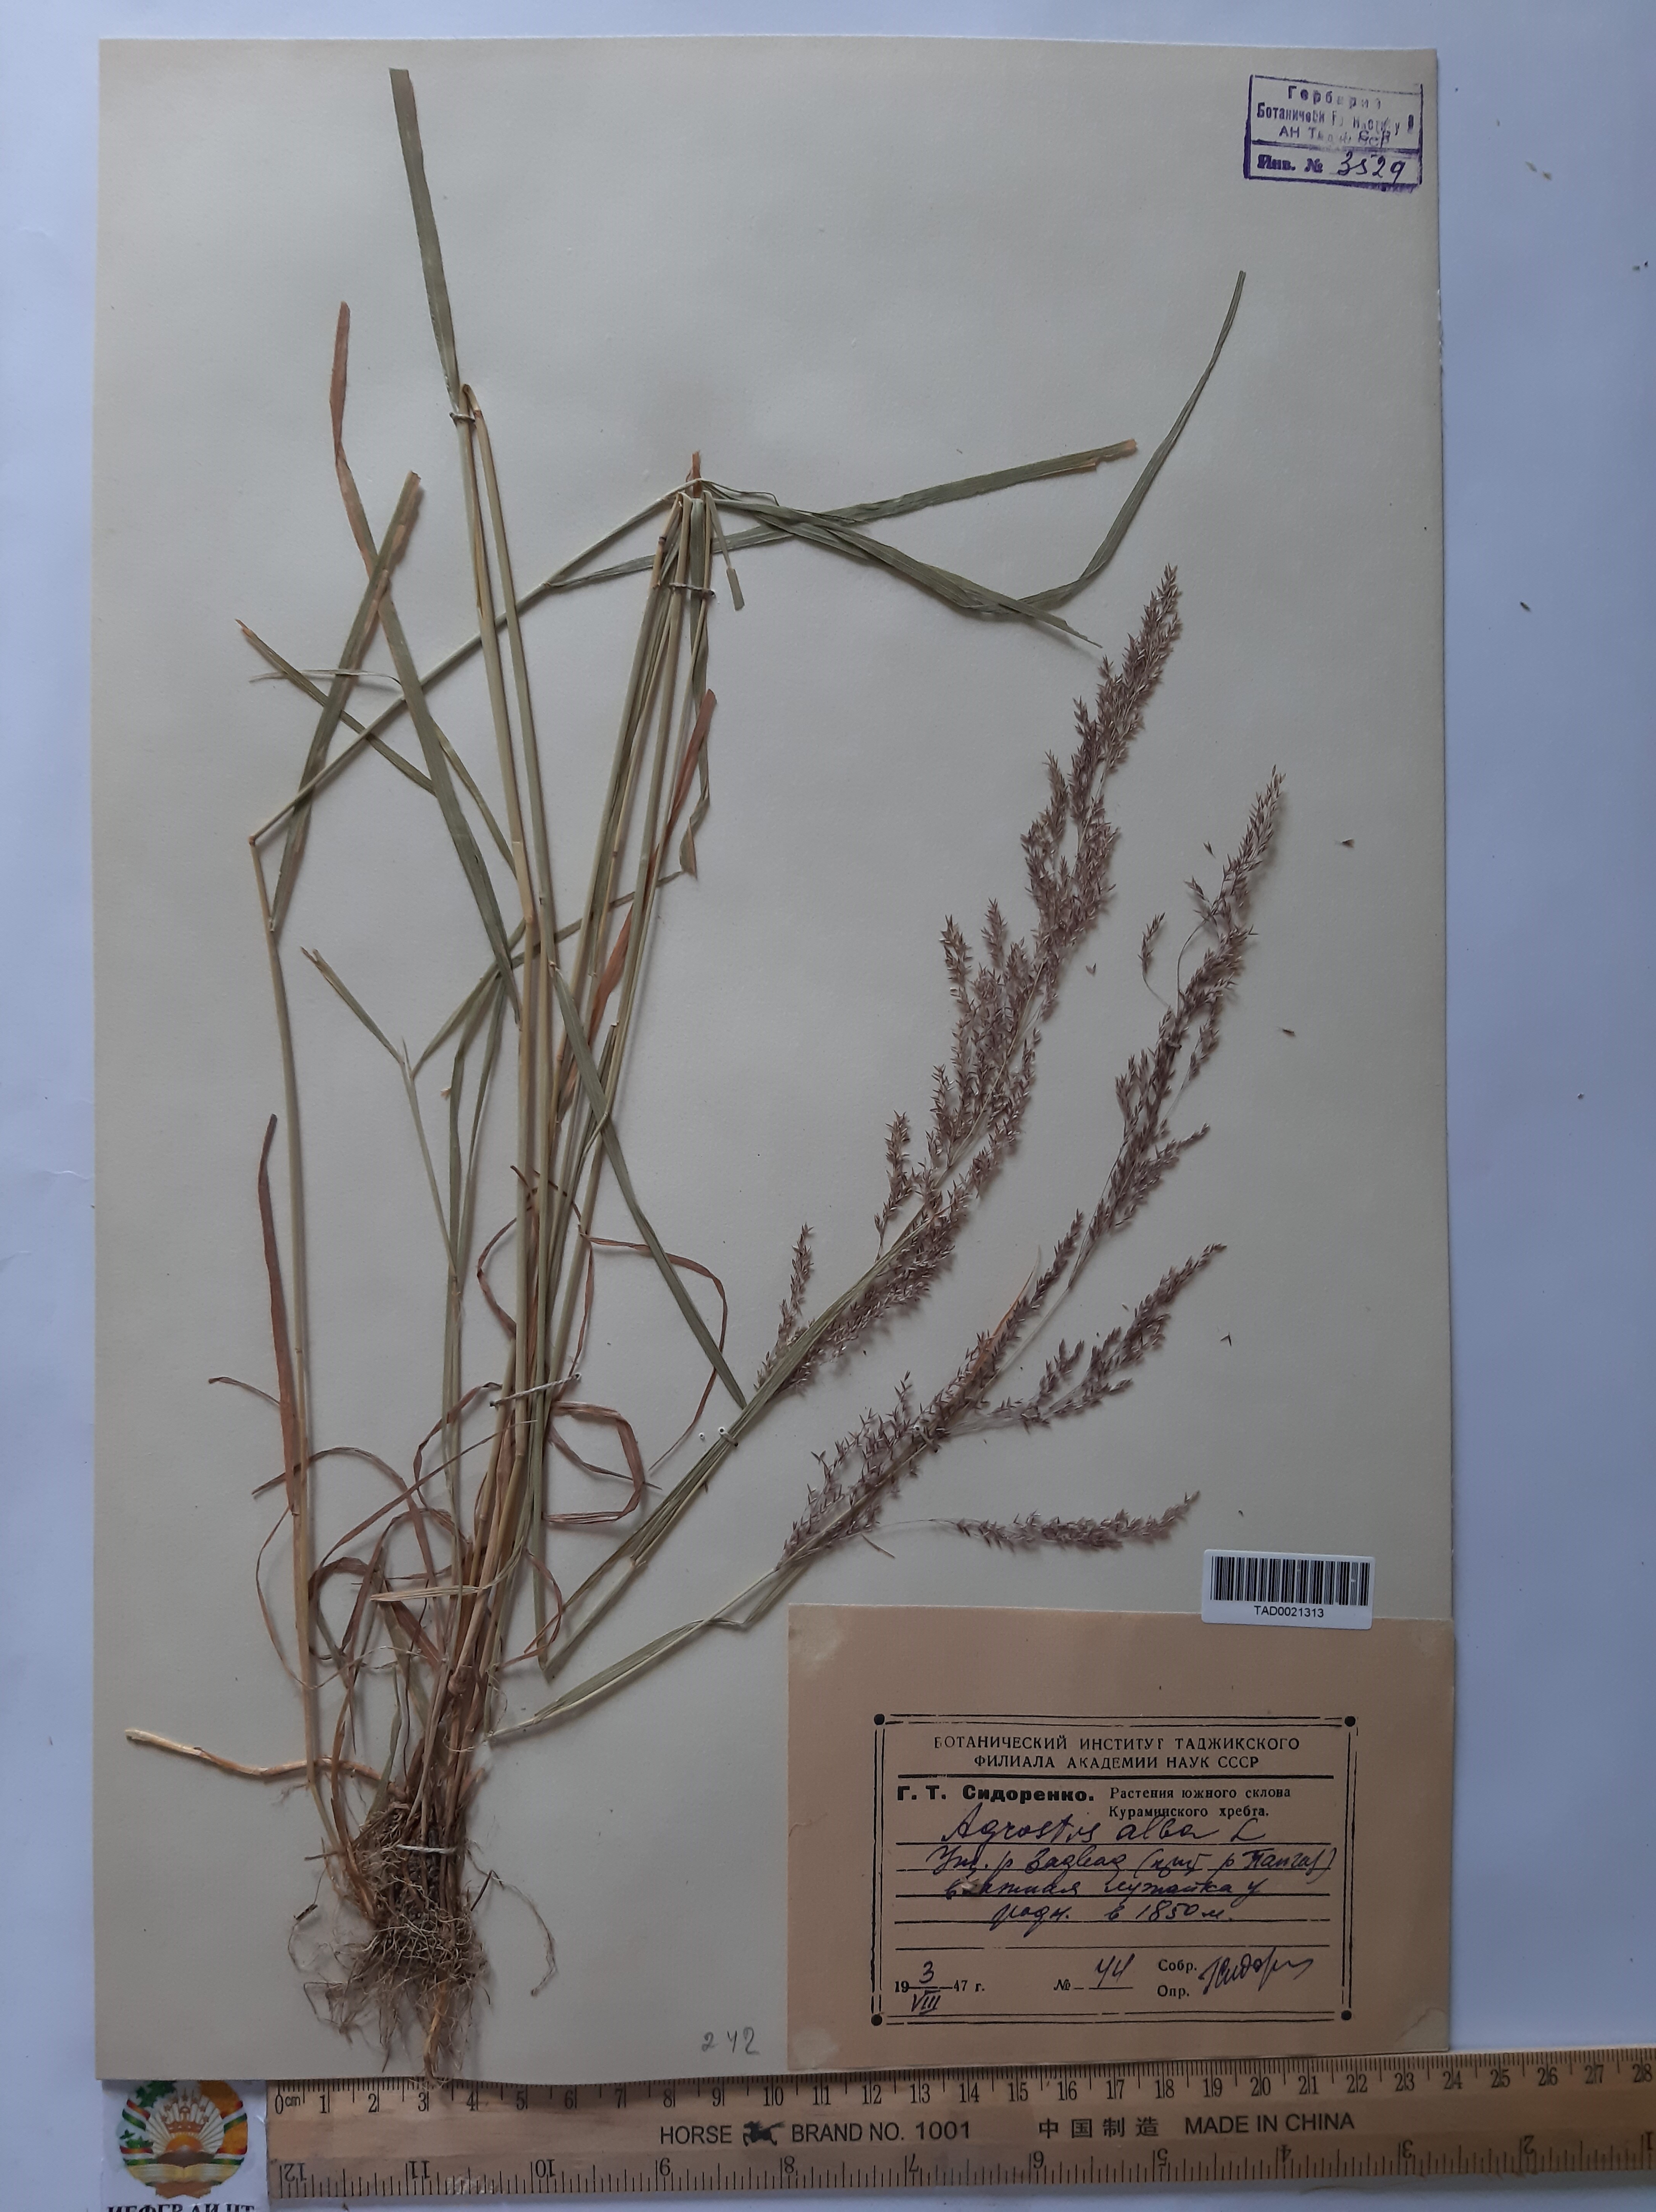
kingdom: Plantae
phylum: Tracheophyta
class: Liliopsida
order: Poales
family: Poaceae
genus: Poa
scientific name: Poa nemoralis
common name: Wood bluegrass
